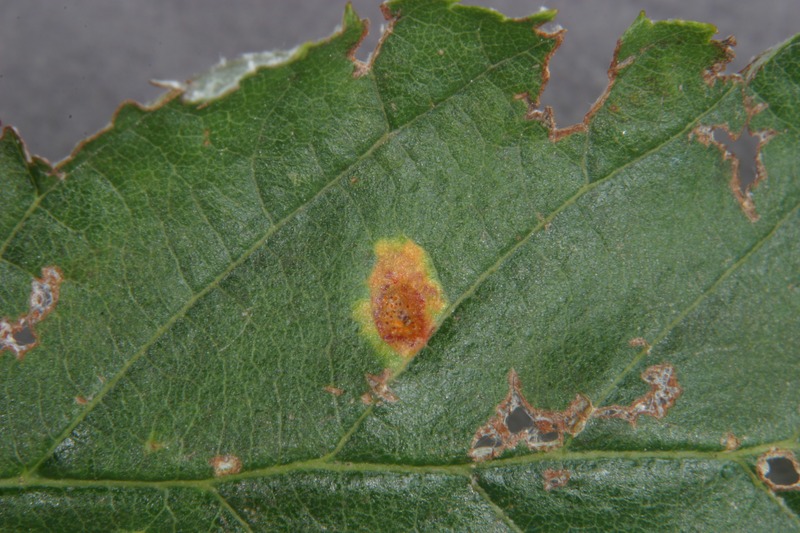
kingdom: Fungi
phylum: Basidiomycota
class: Pucciniomycetes
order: Pucciniales
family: Gymnosporangiaceae
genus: Gymnosporangium
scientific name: Gymnosporangium tremelloides
